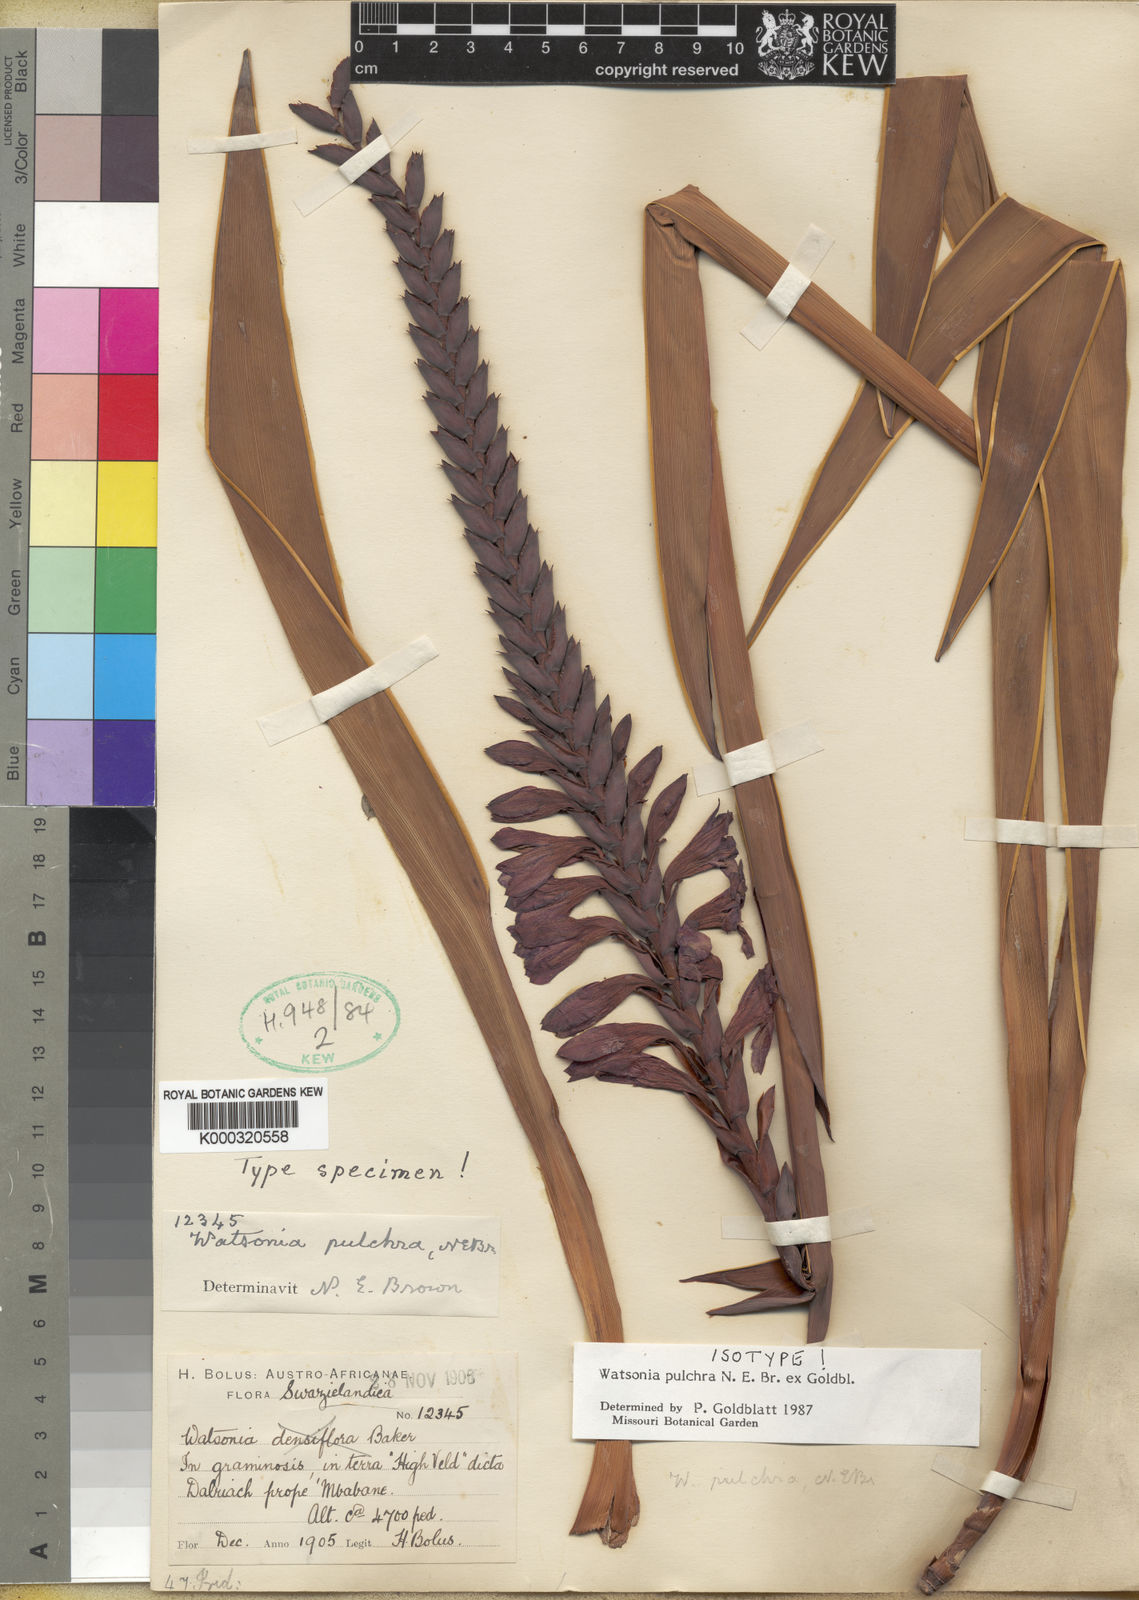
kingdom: Plantae
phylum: Tracheophyta
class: Liliopsida
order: Asparagales
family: Iridaceae
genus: Watsonia
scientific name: Watsonia pulchra
